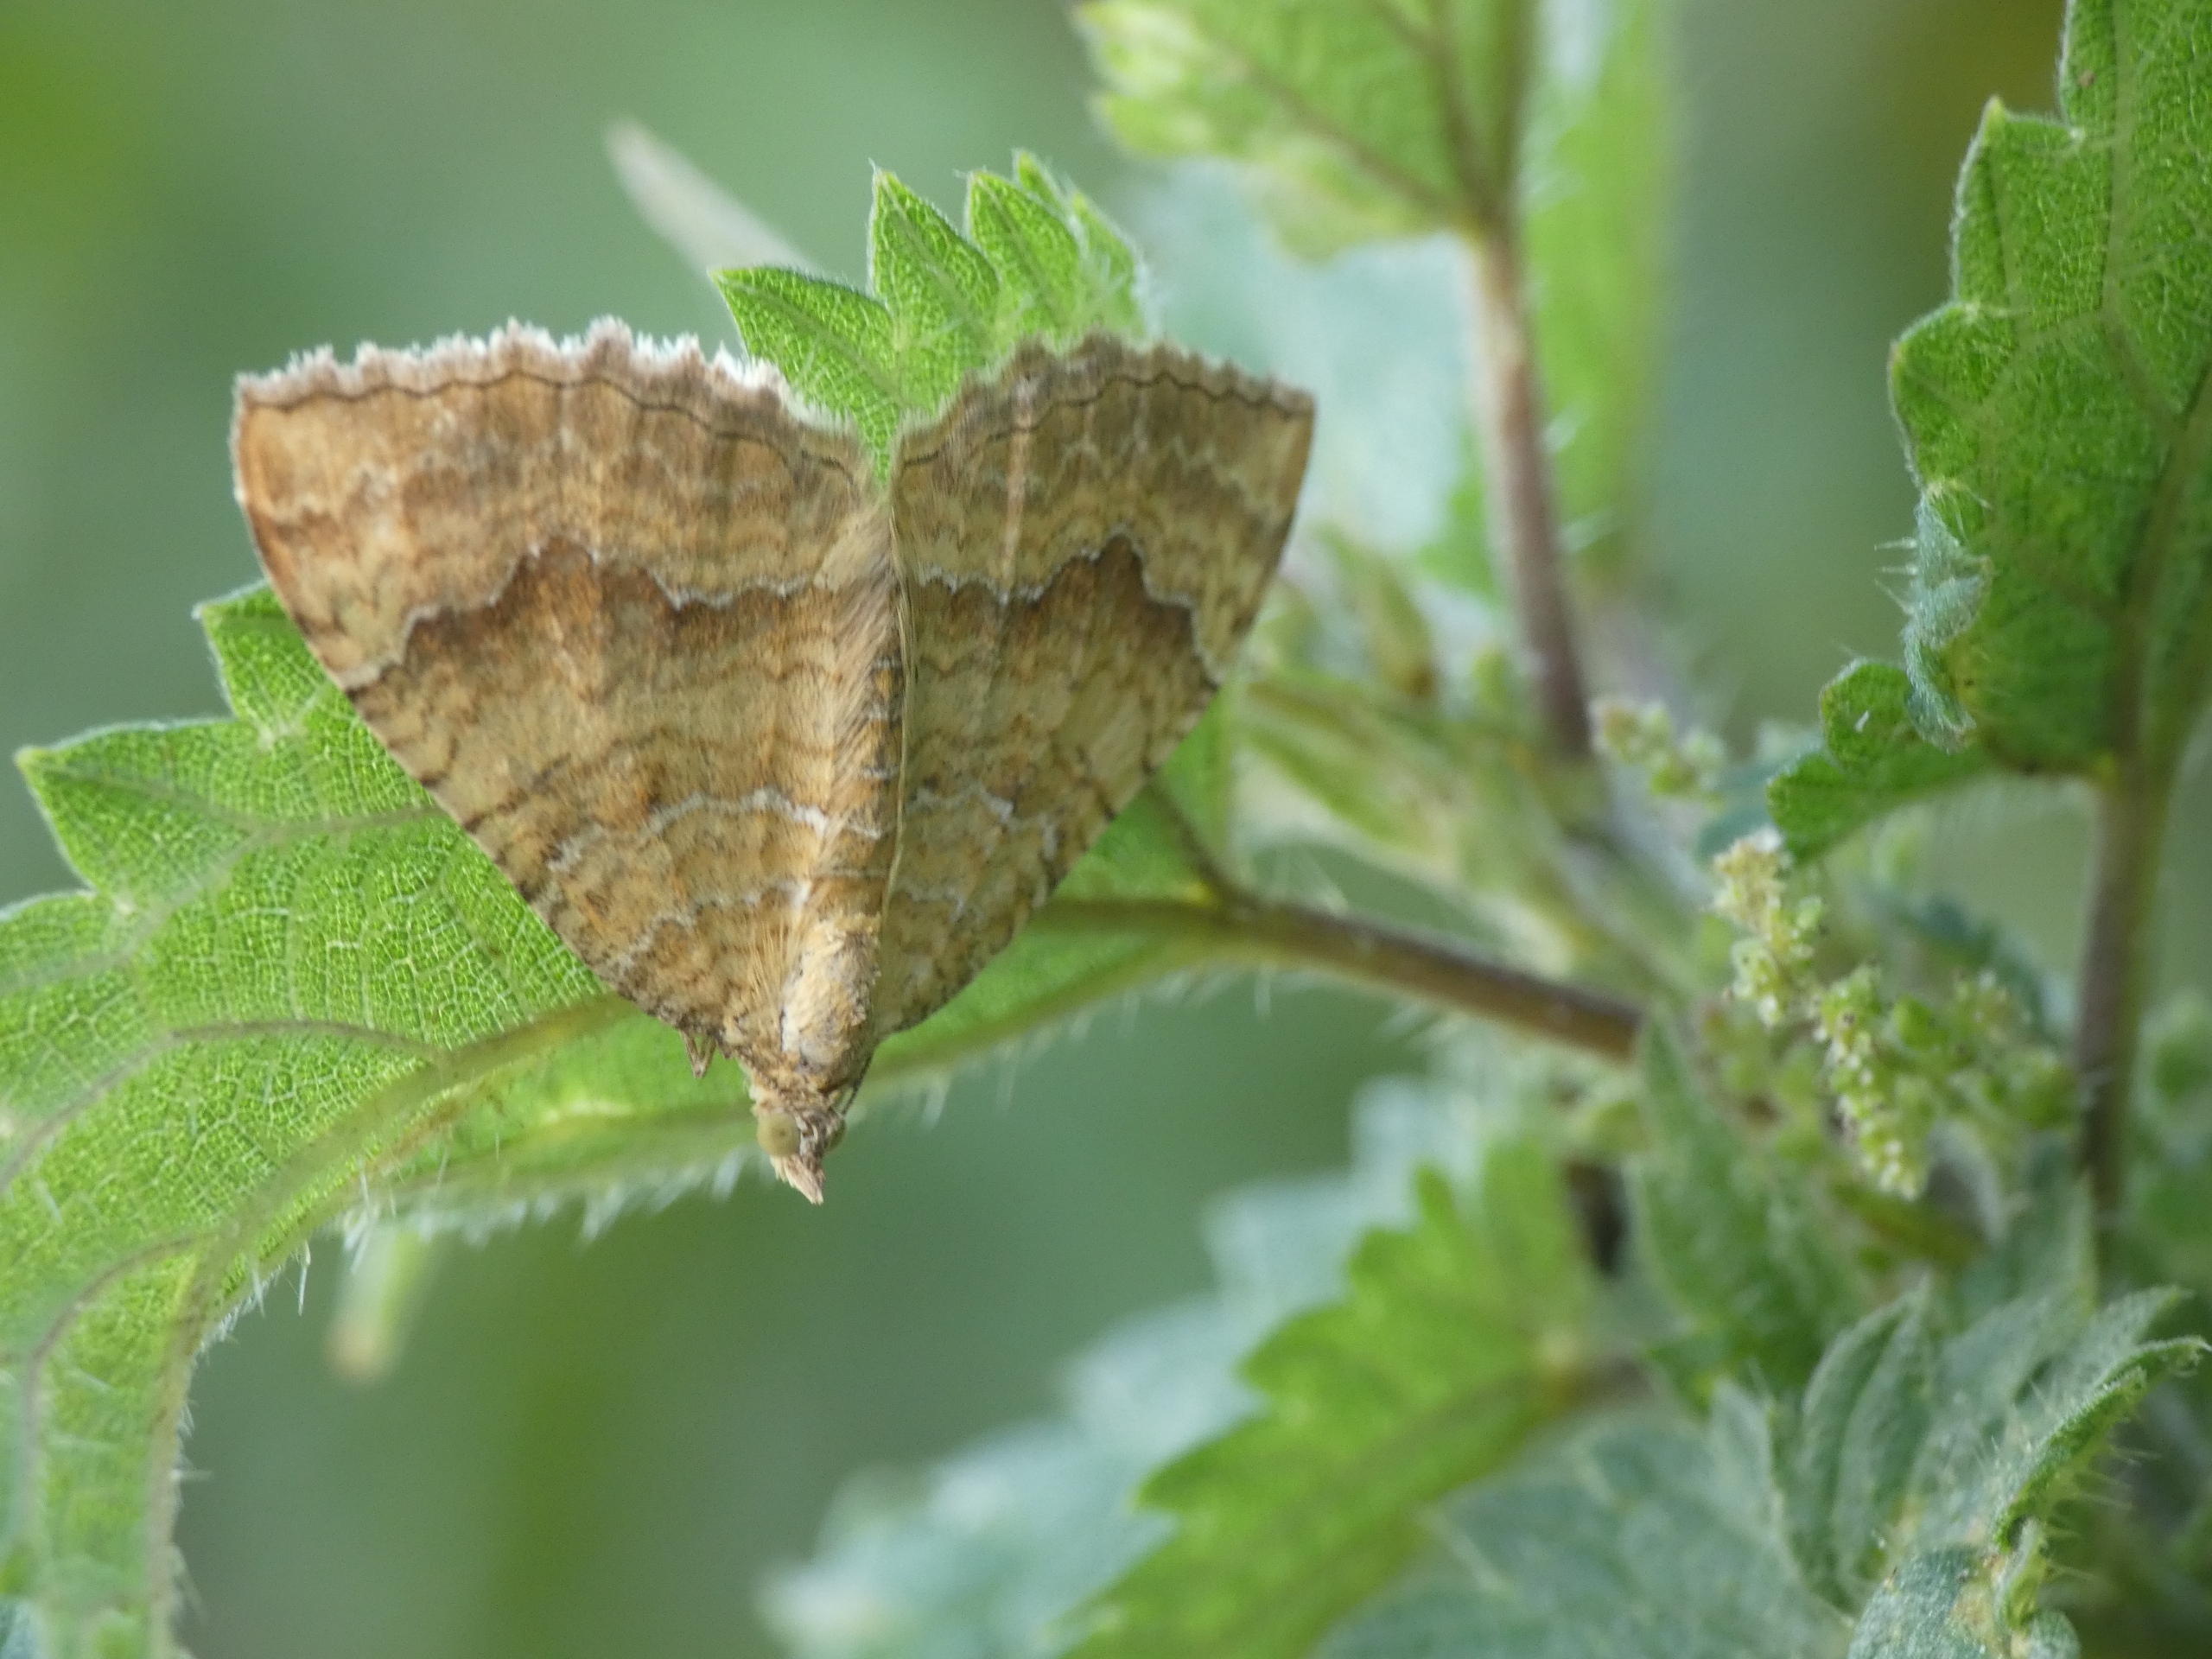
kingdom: Animalia
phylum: Arthropoda
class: Insecta
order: Lepidoptera
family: Geometridae
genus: Camptogramma
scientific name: Camptogramma bilineata
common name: Okkergul bladmåler
